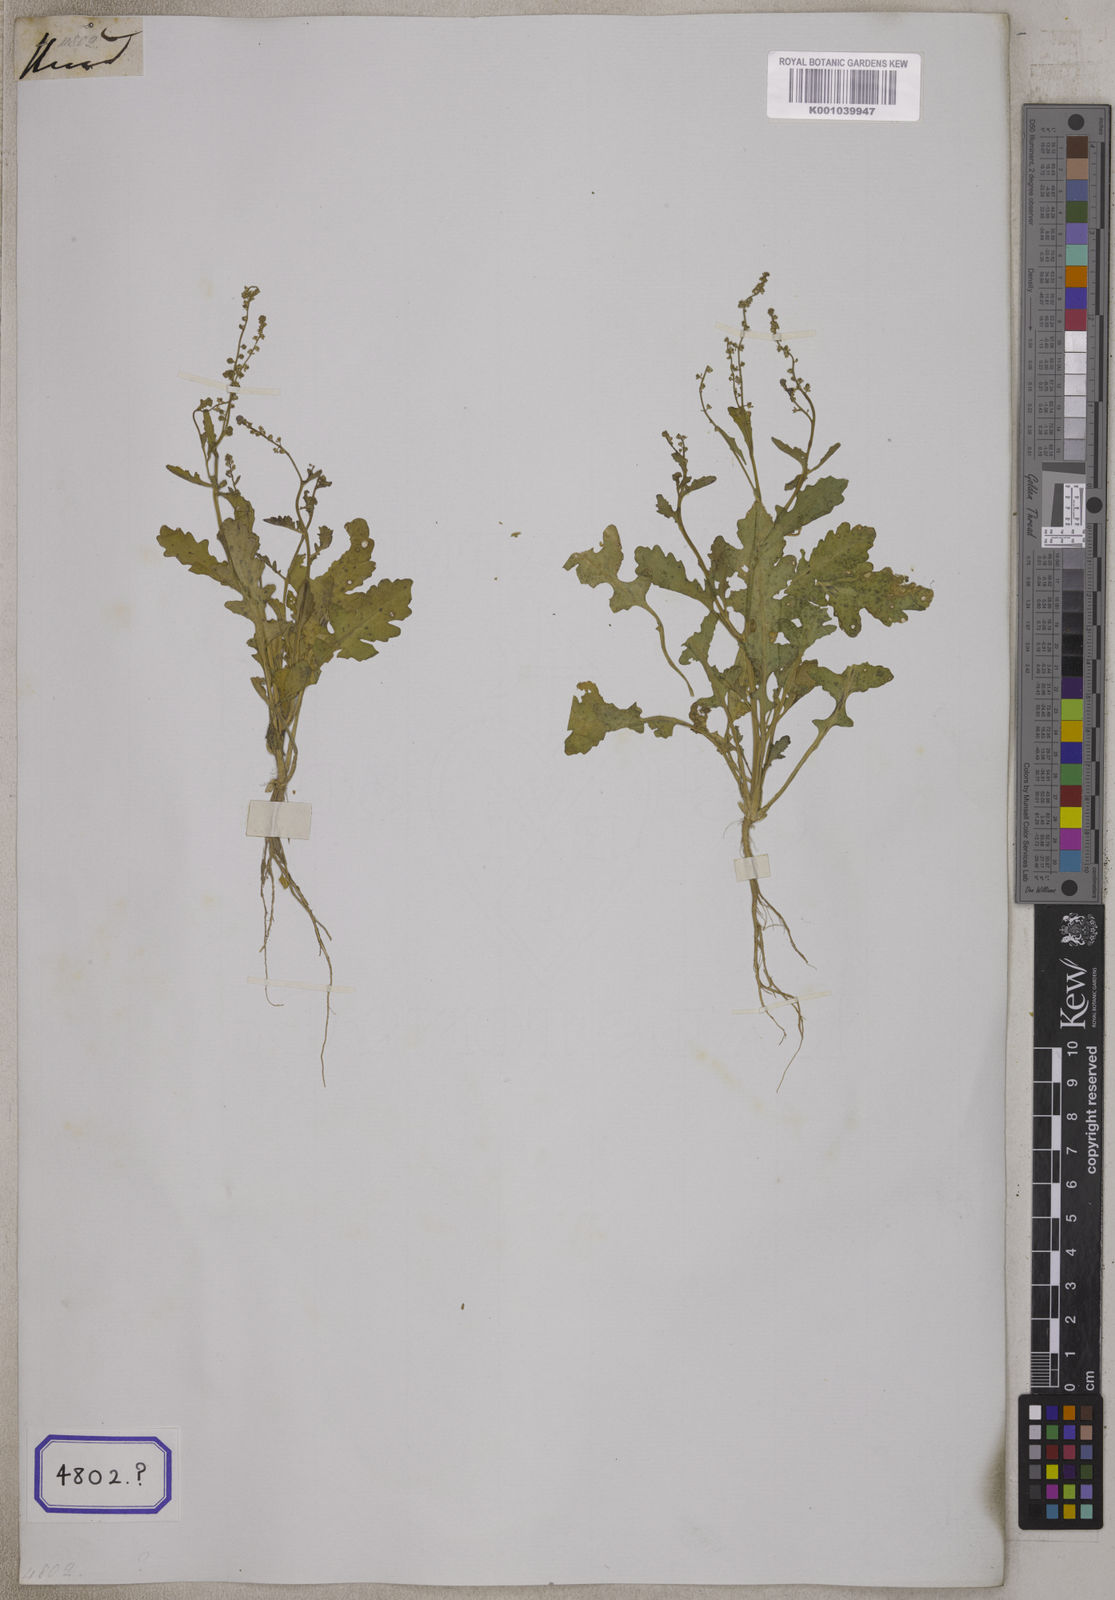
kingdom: Plantae
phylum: Tracheophyta
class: Magnoliopsida
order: Brassicales
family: Brassicaceae
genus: Rorippa
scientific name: Rorippa cochlearioides
